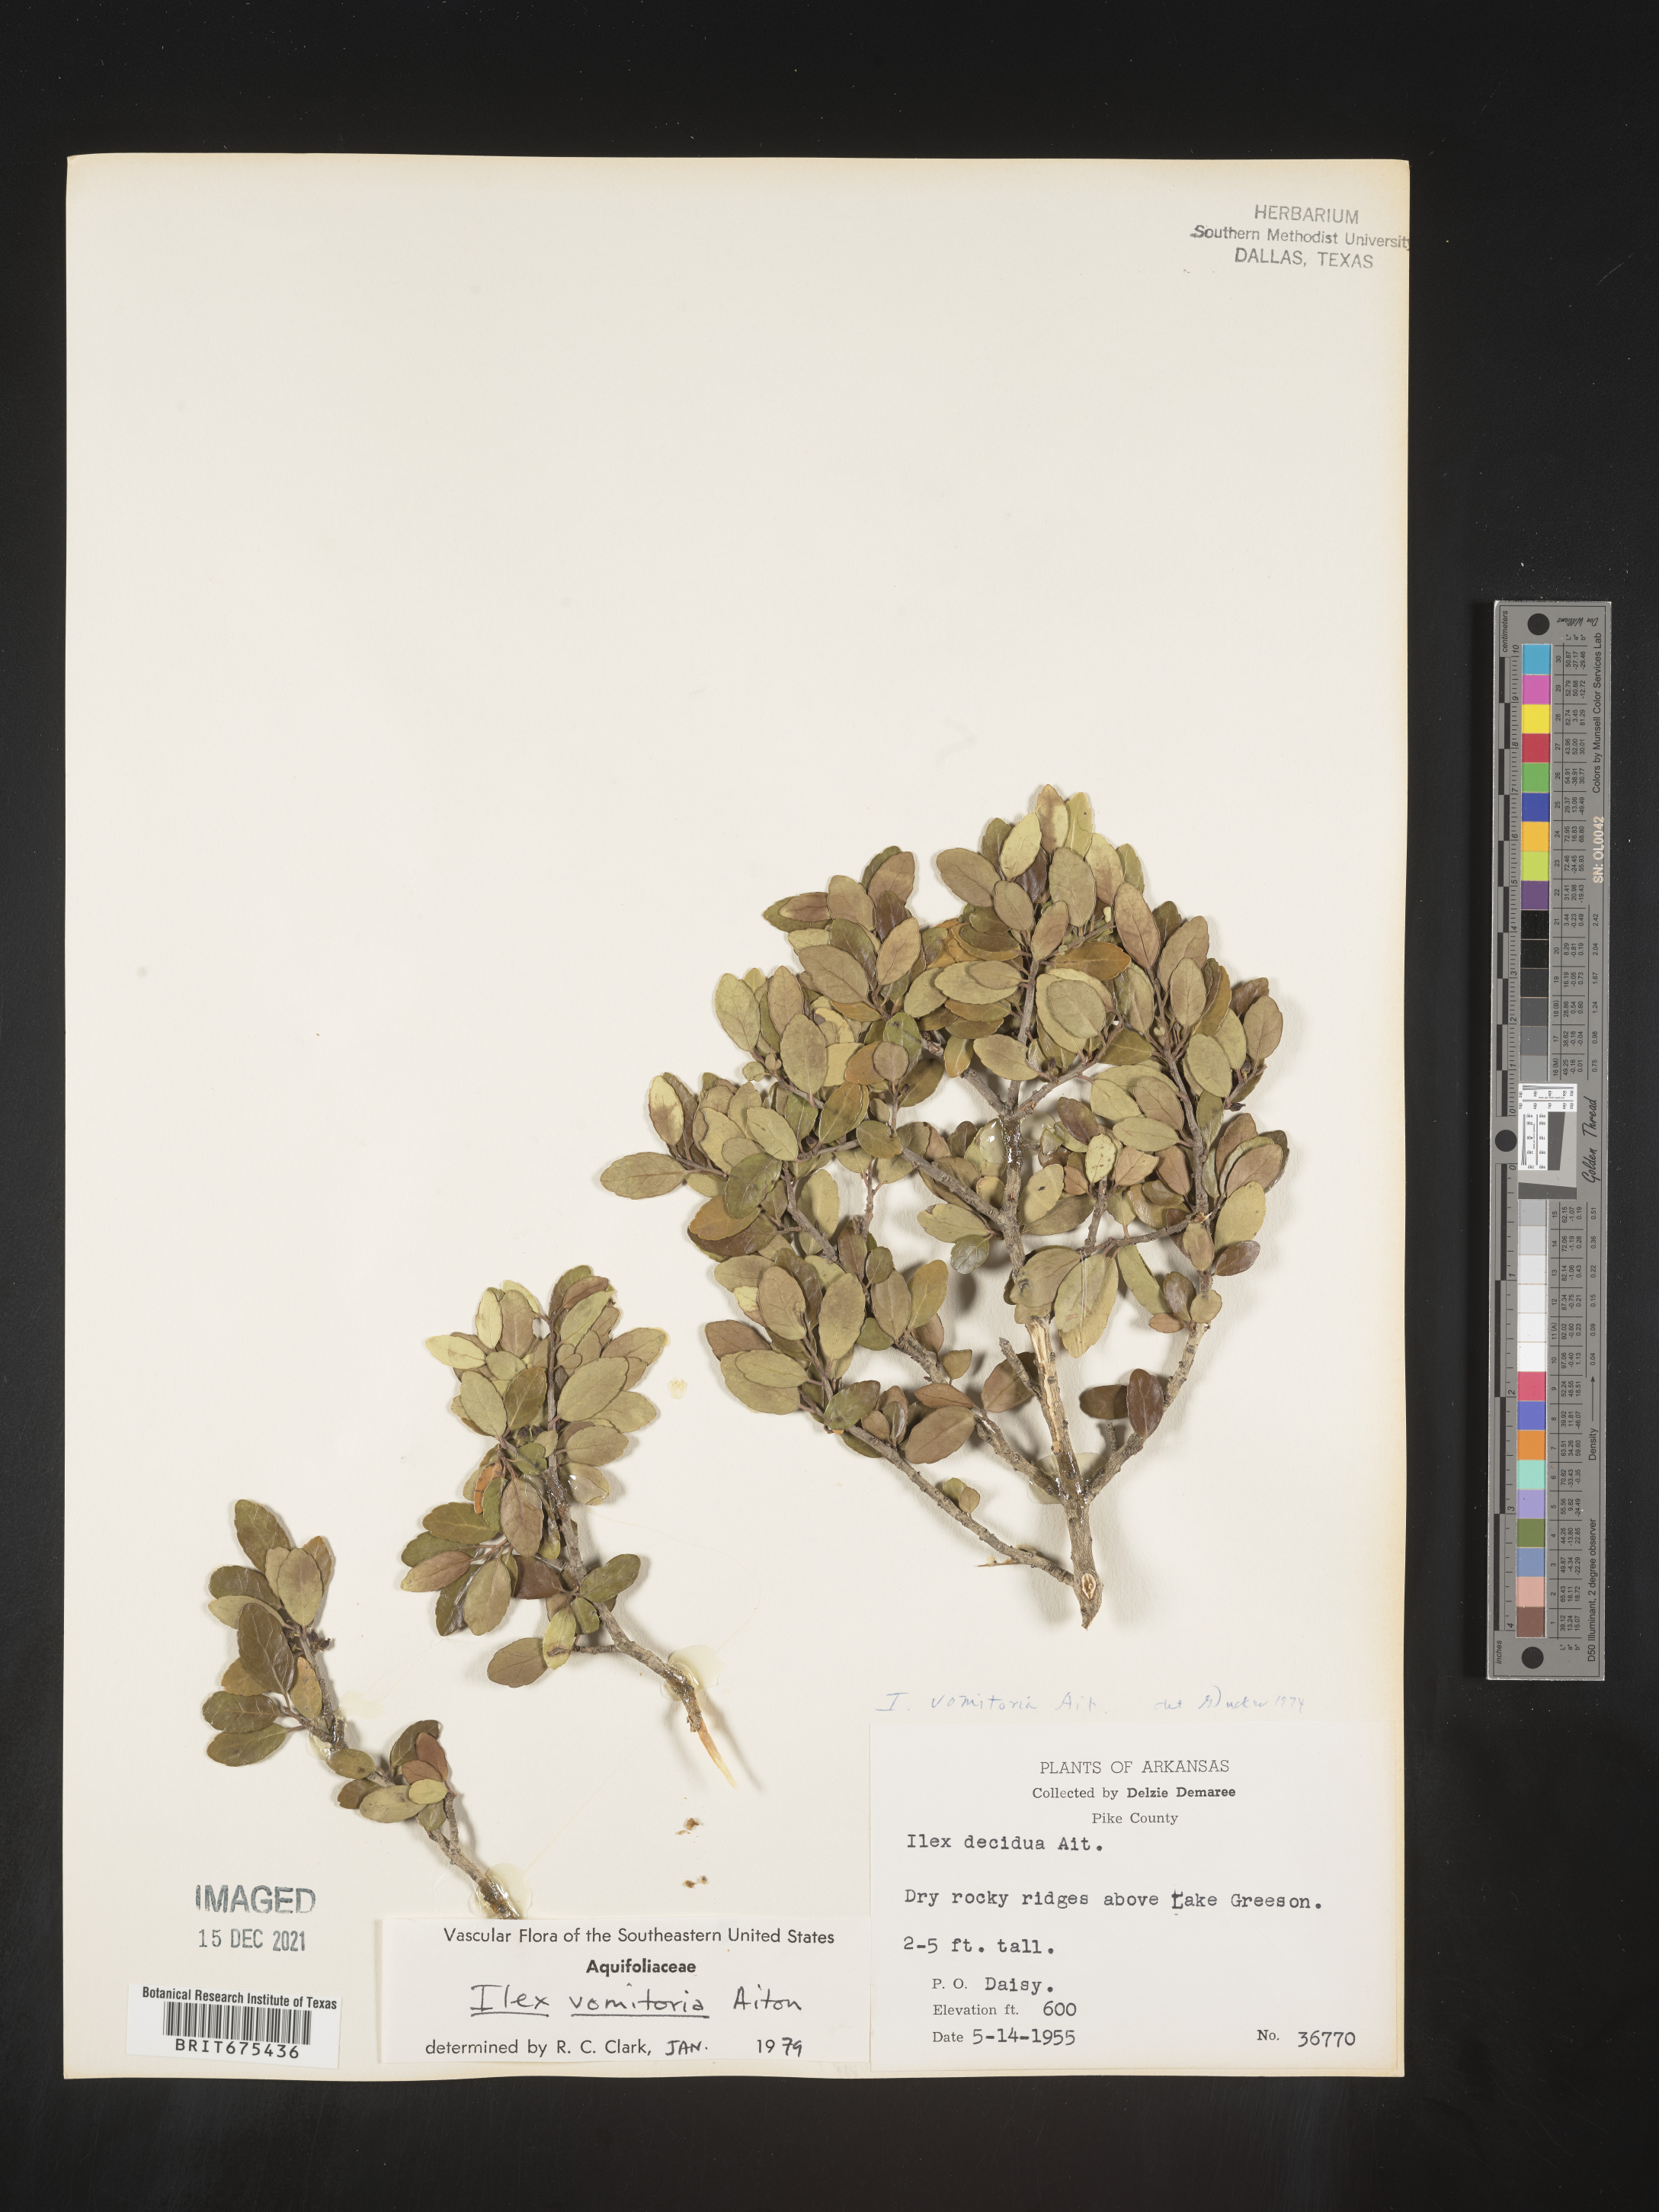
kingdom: Plantae
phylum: Tracheophyta
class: Magnoliopsida
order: Aquifoliales
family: Aquifoliaceae
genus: Ilex
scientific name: Ilex vomitoria
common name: Yaupon holly
